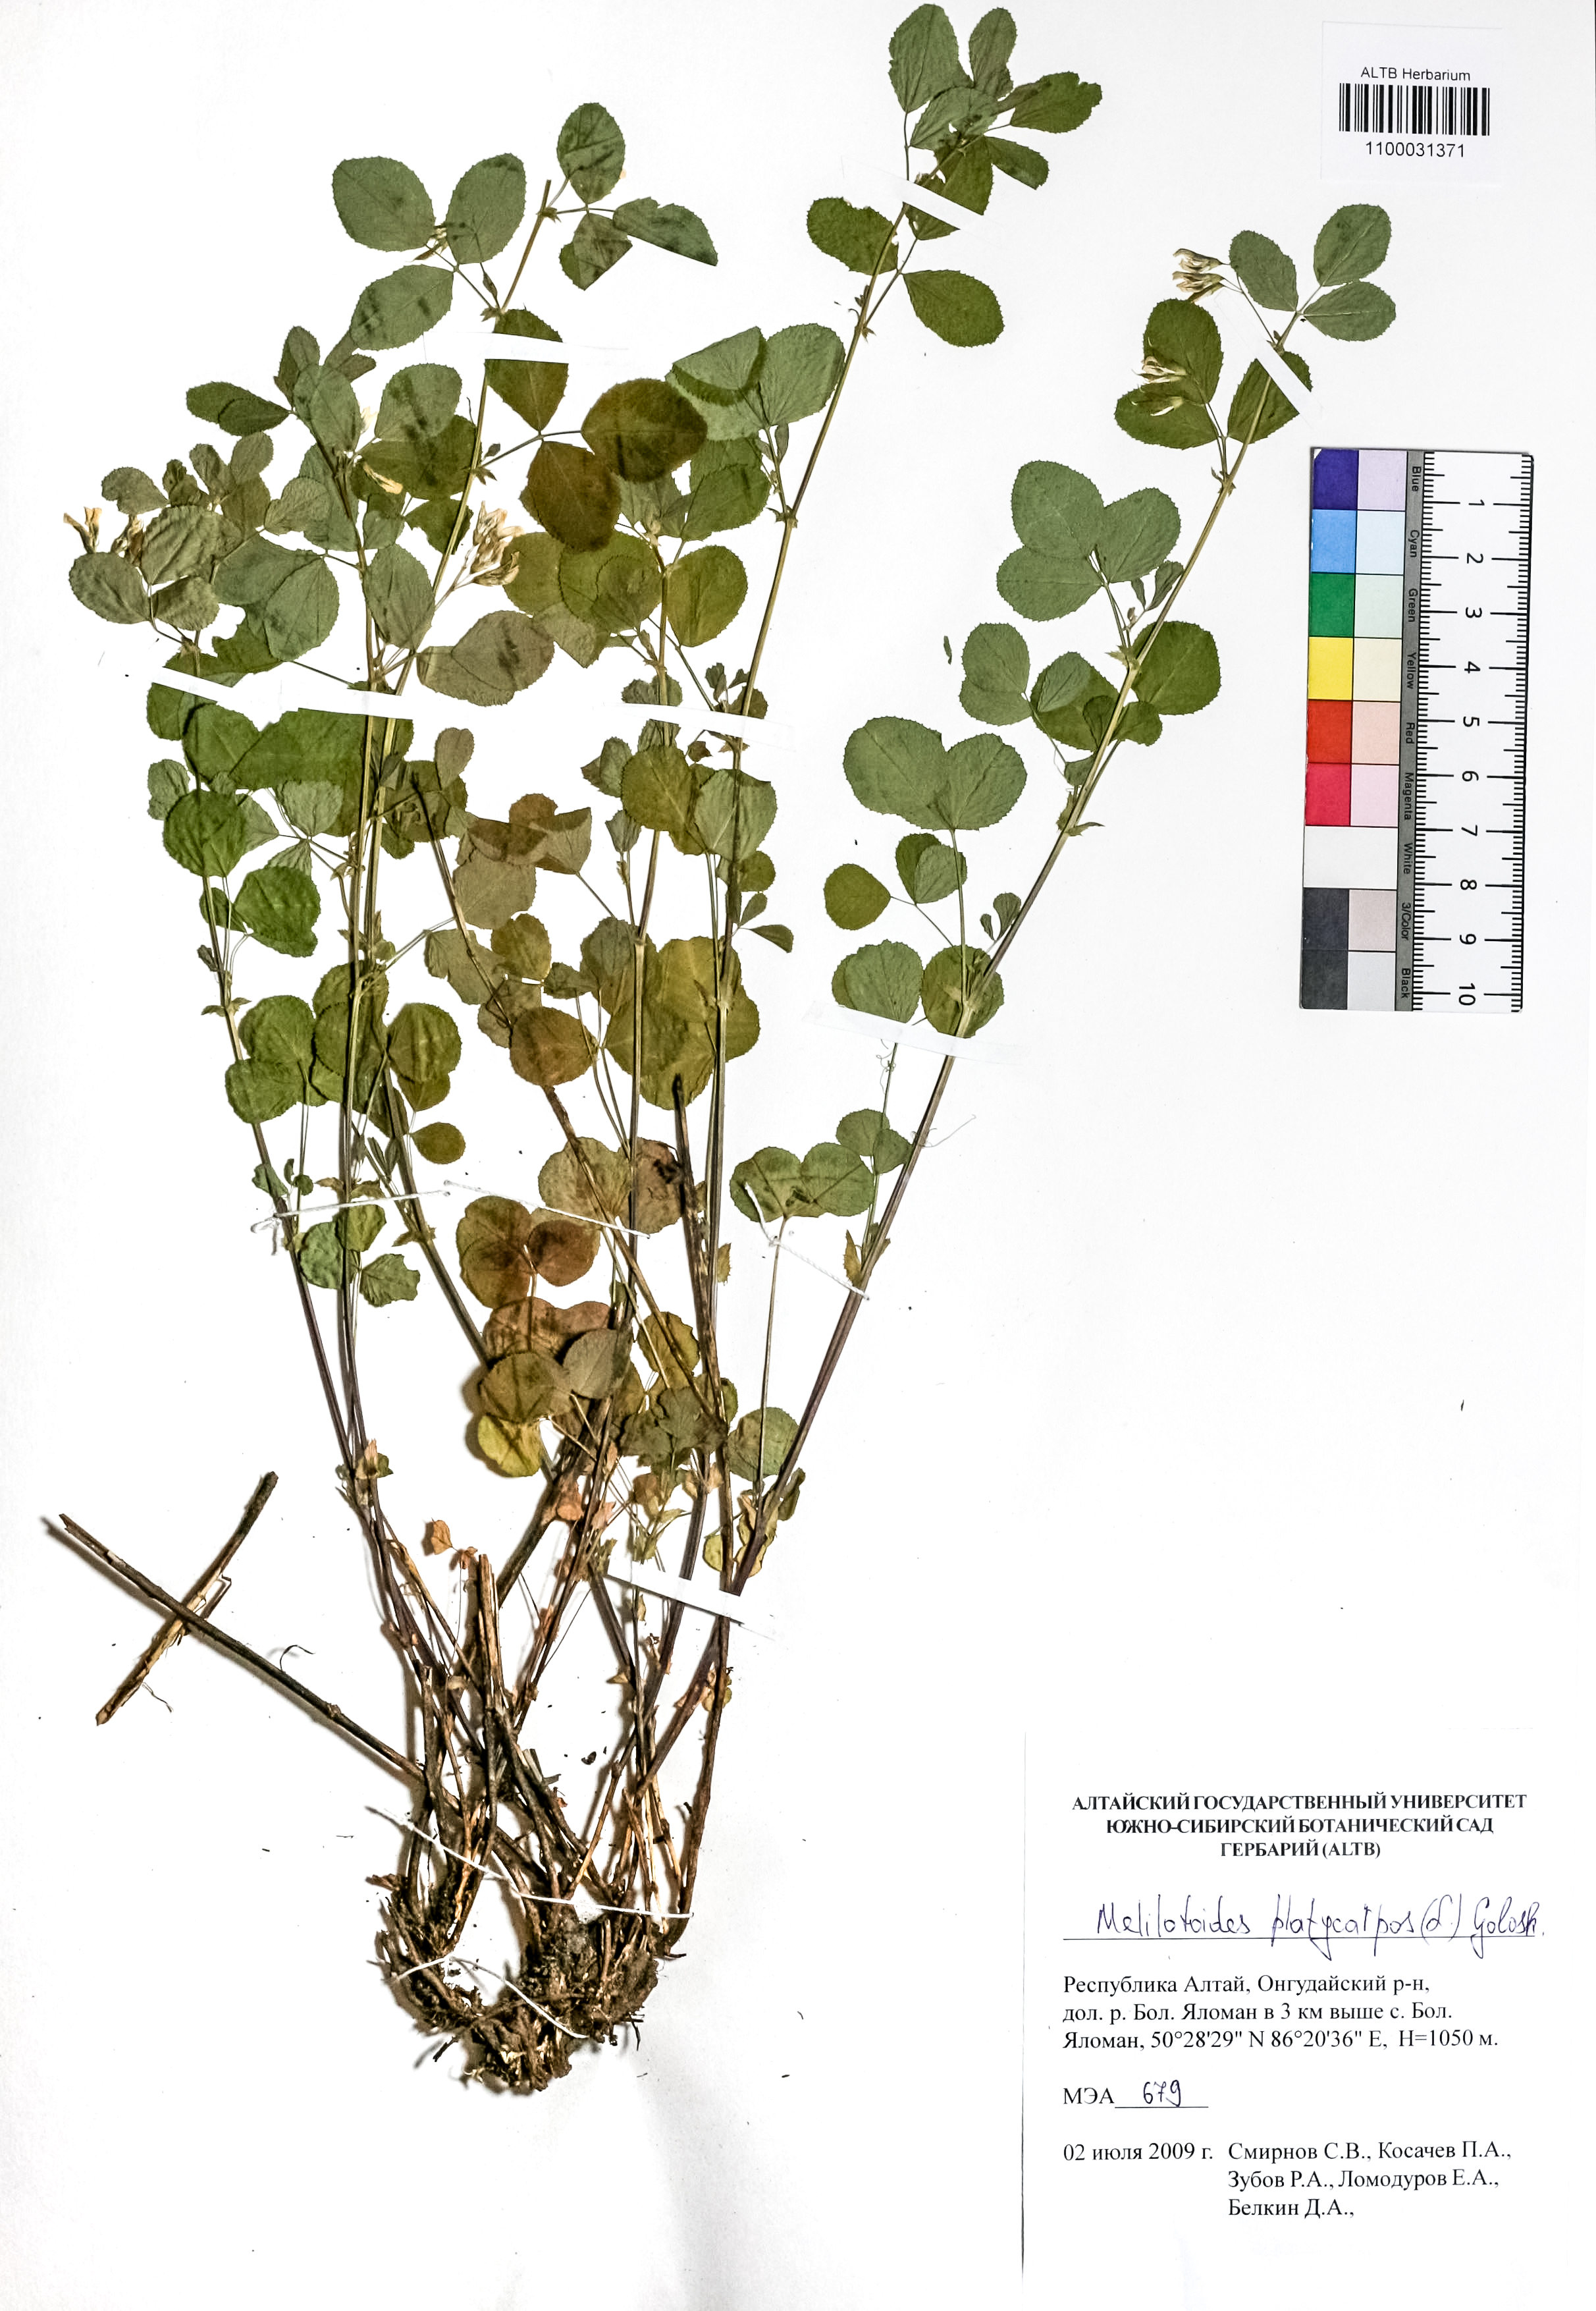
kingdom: Plantae
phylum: Tracheophyta
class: Magnoliopsida
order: Fabales
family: Fabaceae
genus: Medicago
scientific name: Medicago platycarpos
